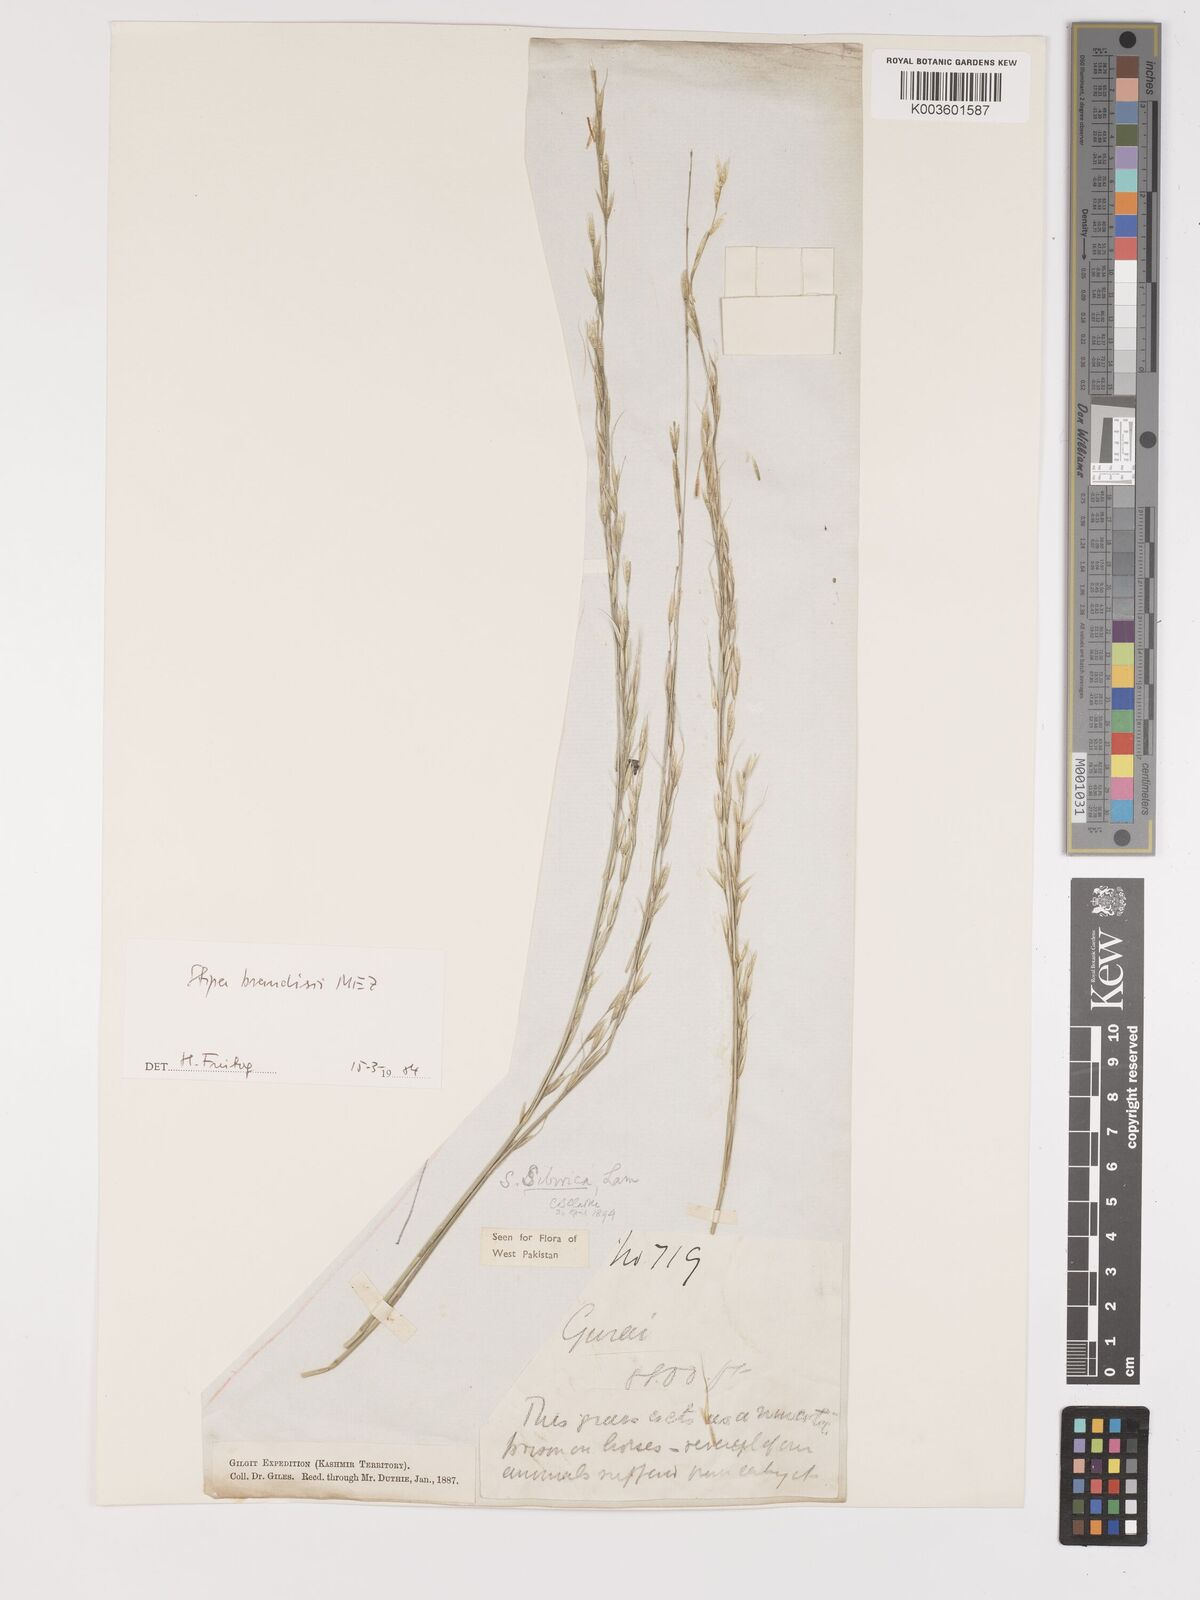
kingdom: Plantae
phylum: Tracheophyta
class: Liliopsida
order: Poales
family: Poaceae
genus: Achnatherum
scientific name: Achnatherum brandisii
